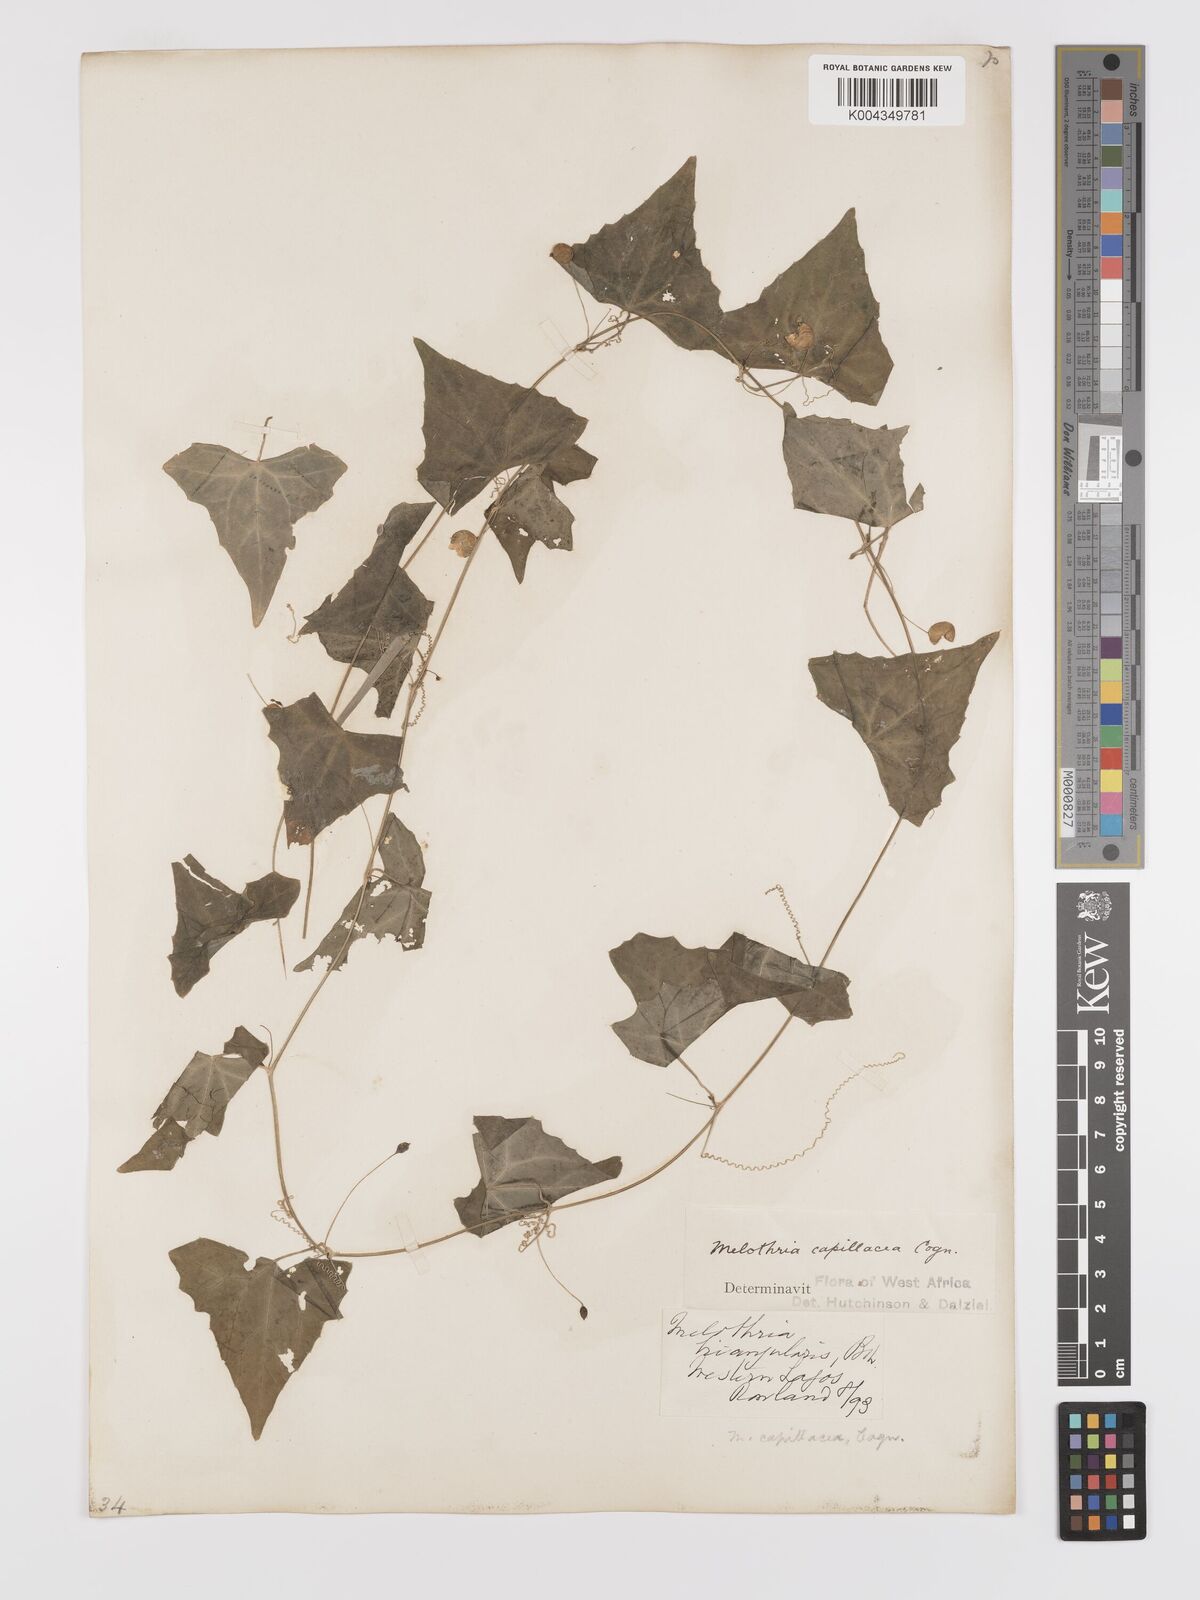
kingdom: Plantae
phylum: Tracheophyta
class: Magnoliopsida
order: Cucurbitales
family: Cucurbitaceae
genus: Zehneria
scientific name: Zehneria capillacea
